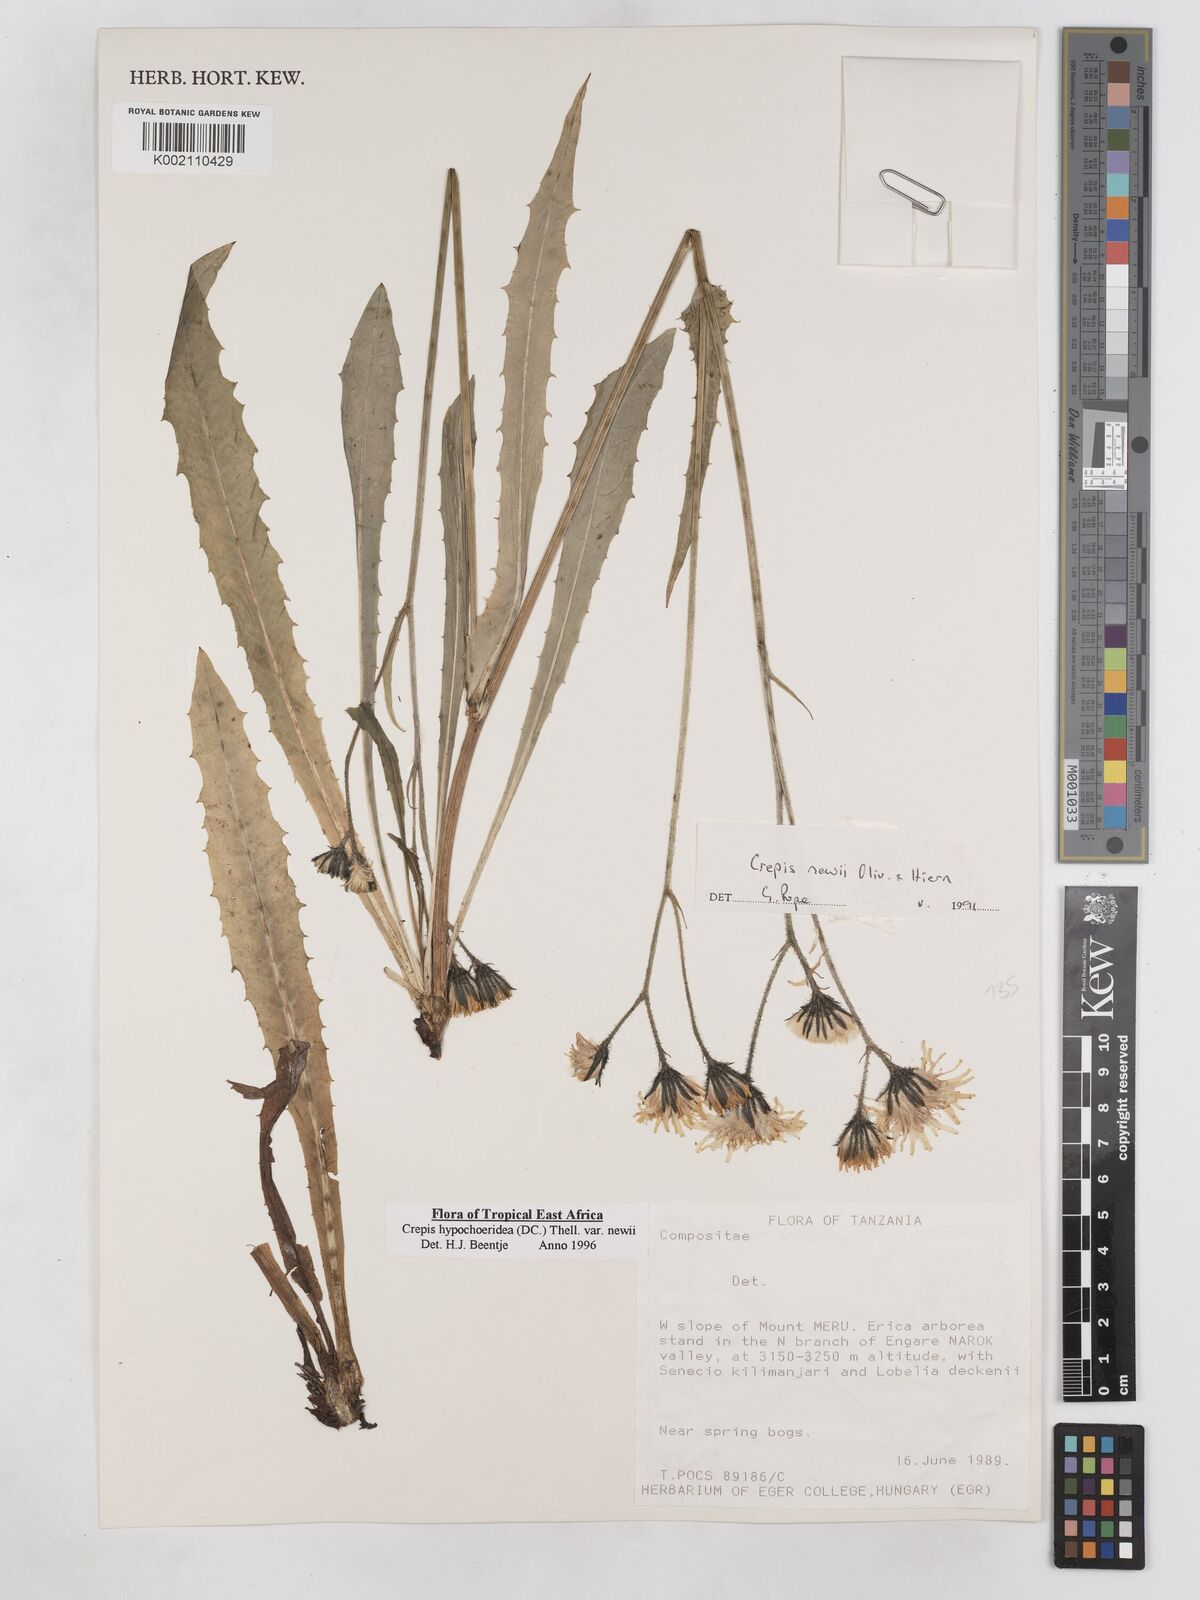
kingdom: Plantae
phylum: Tracheophyta
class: Magnoliopsida
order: Asterales
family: Asteraceae
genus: Crepis
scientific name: Crepis hypochoeridea
